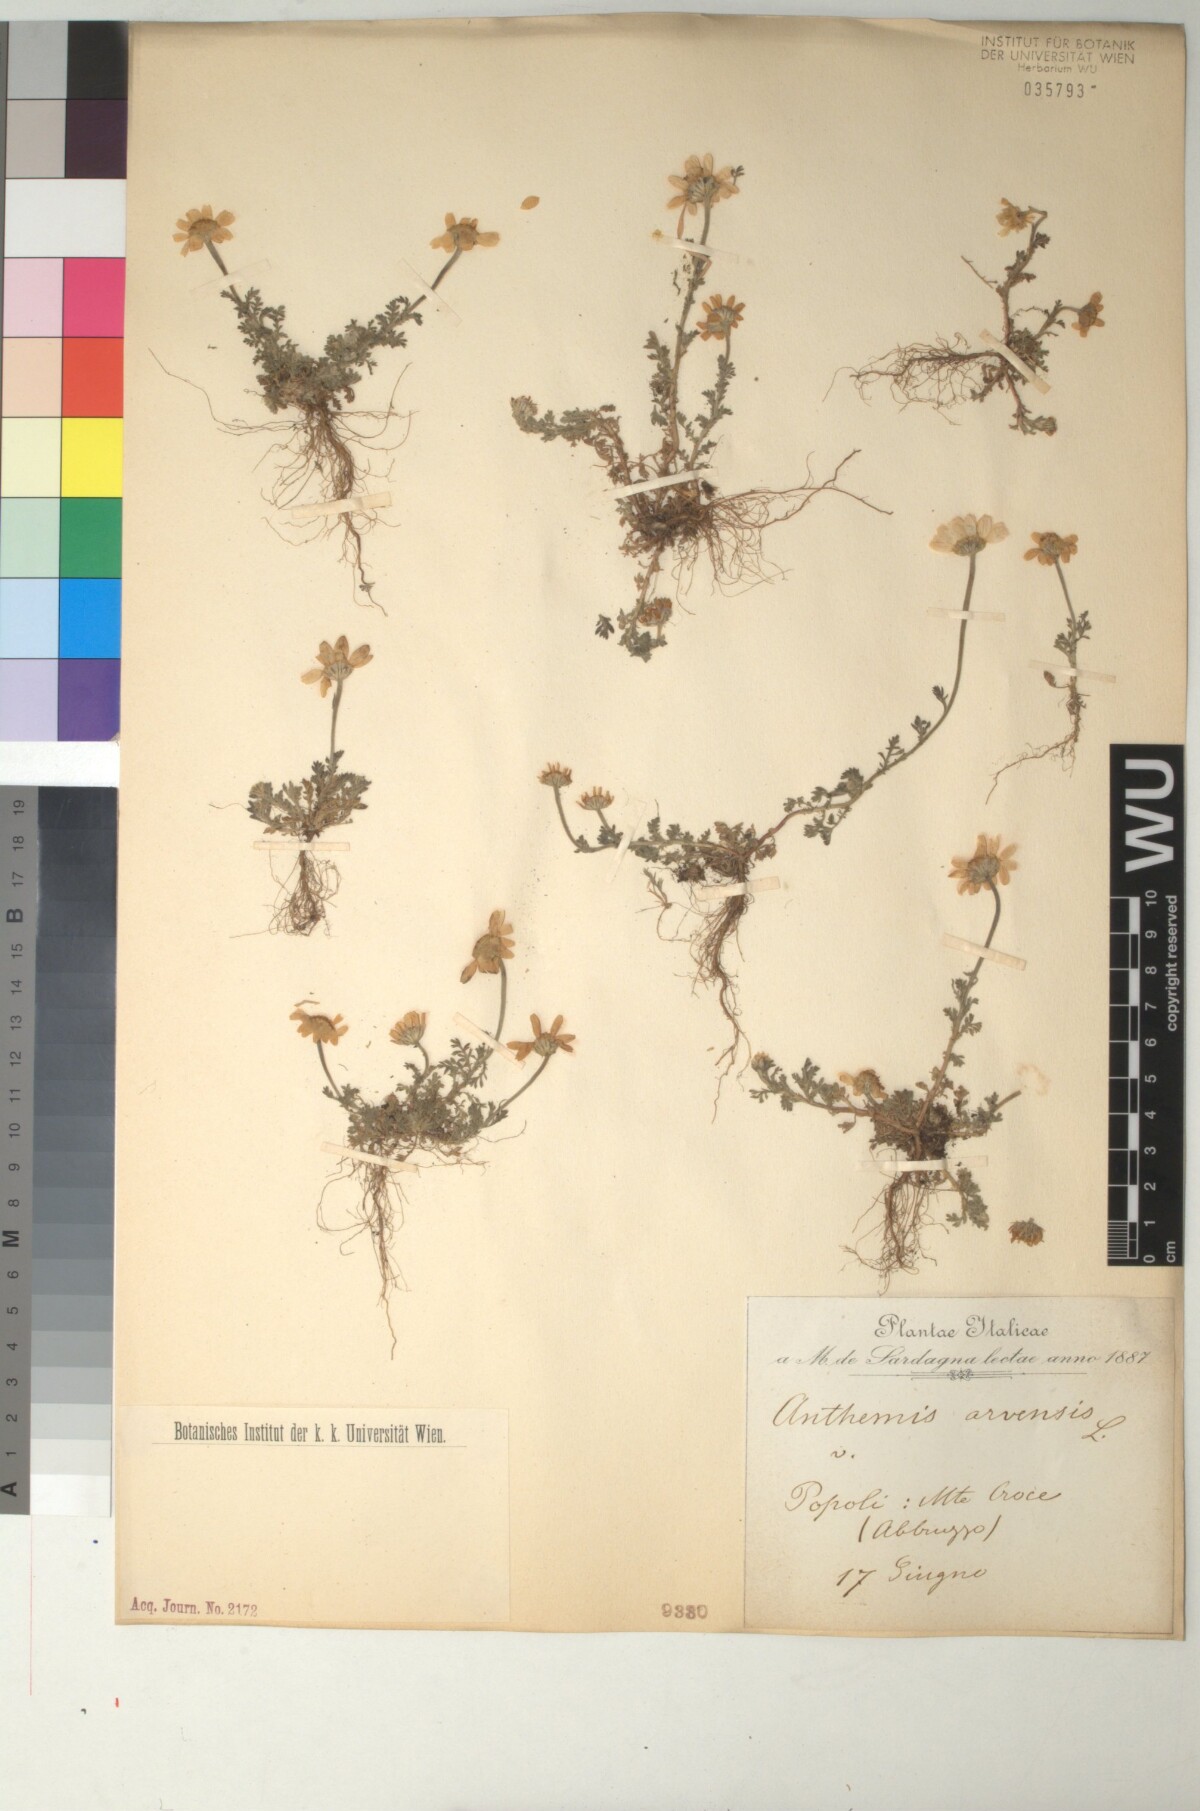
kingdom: Plantae
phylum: Tracheophyta
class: Magnoliopsida
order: Asterales
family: Asteraceae
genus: Anthemis
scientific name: Anthemis arvensis
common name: Corn chamomile
